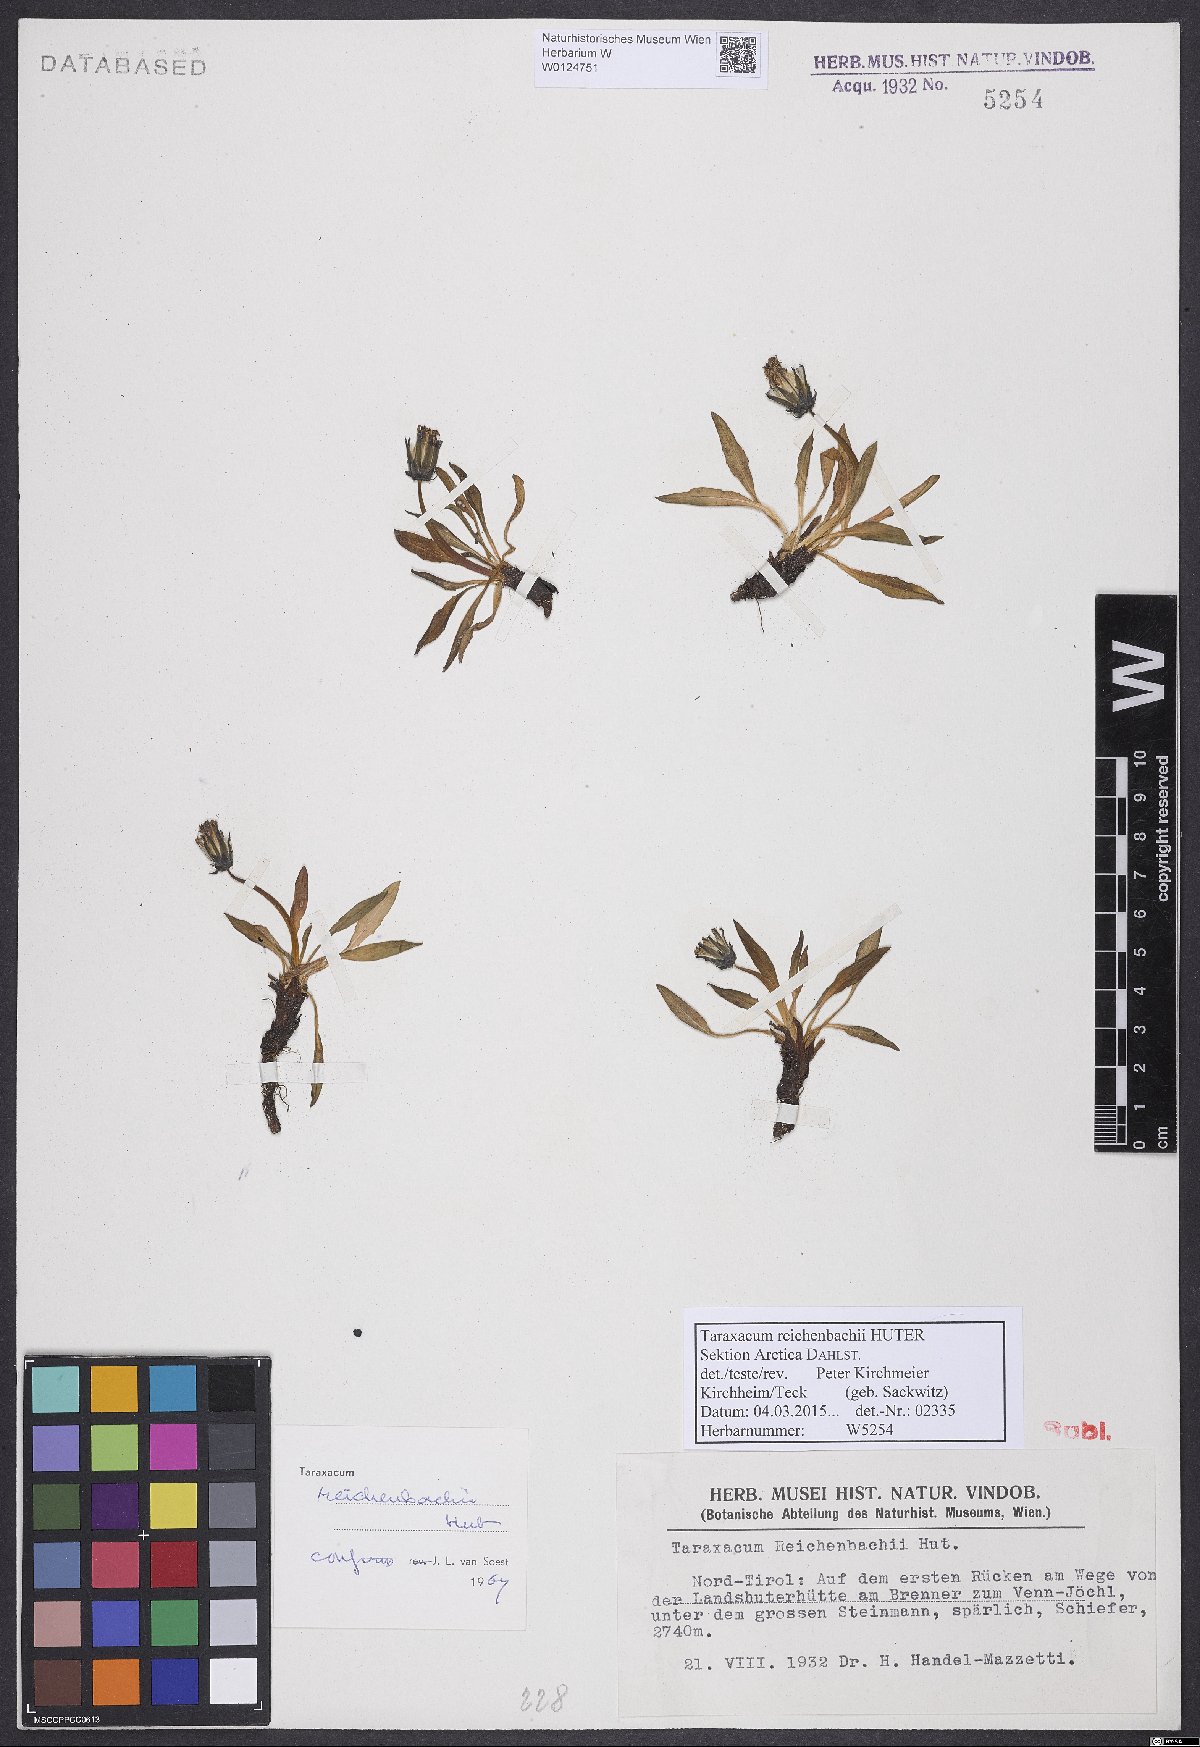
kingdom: Plantae
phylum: Tracheophyta
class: Magnoliopsida
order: Asterales
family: Asteraceae
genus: Taraxacum
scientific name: Taraxacum reichenbachii
